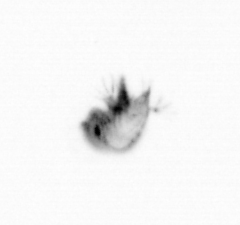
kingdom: Animalia
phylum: Arthropoda
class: Copepoda
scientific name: Copepoda
